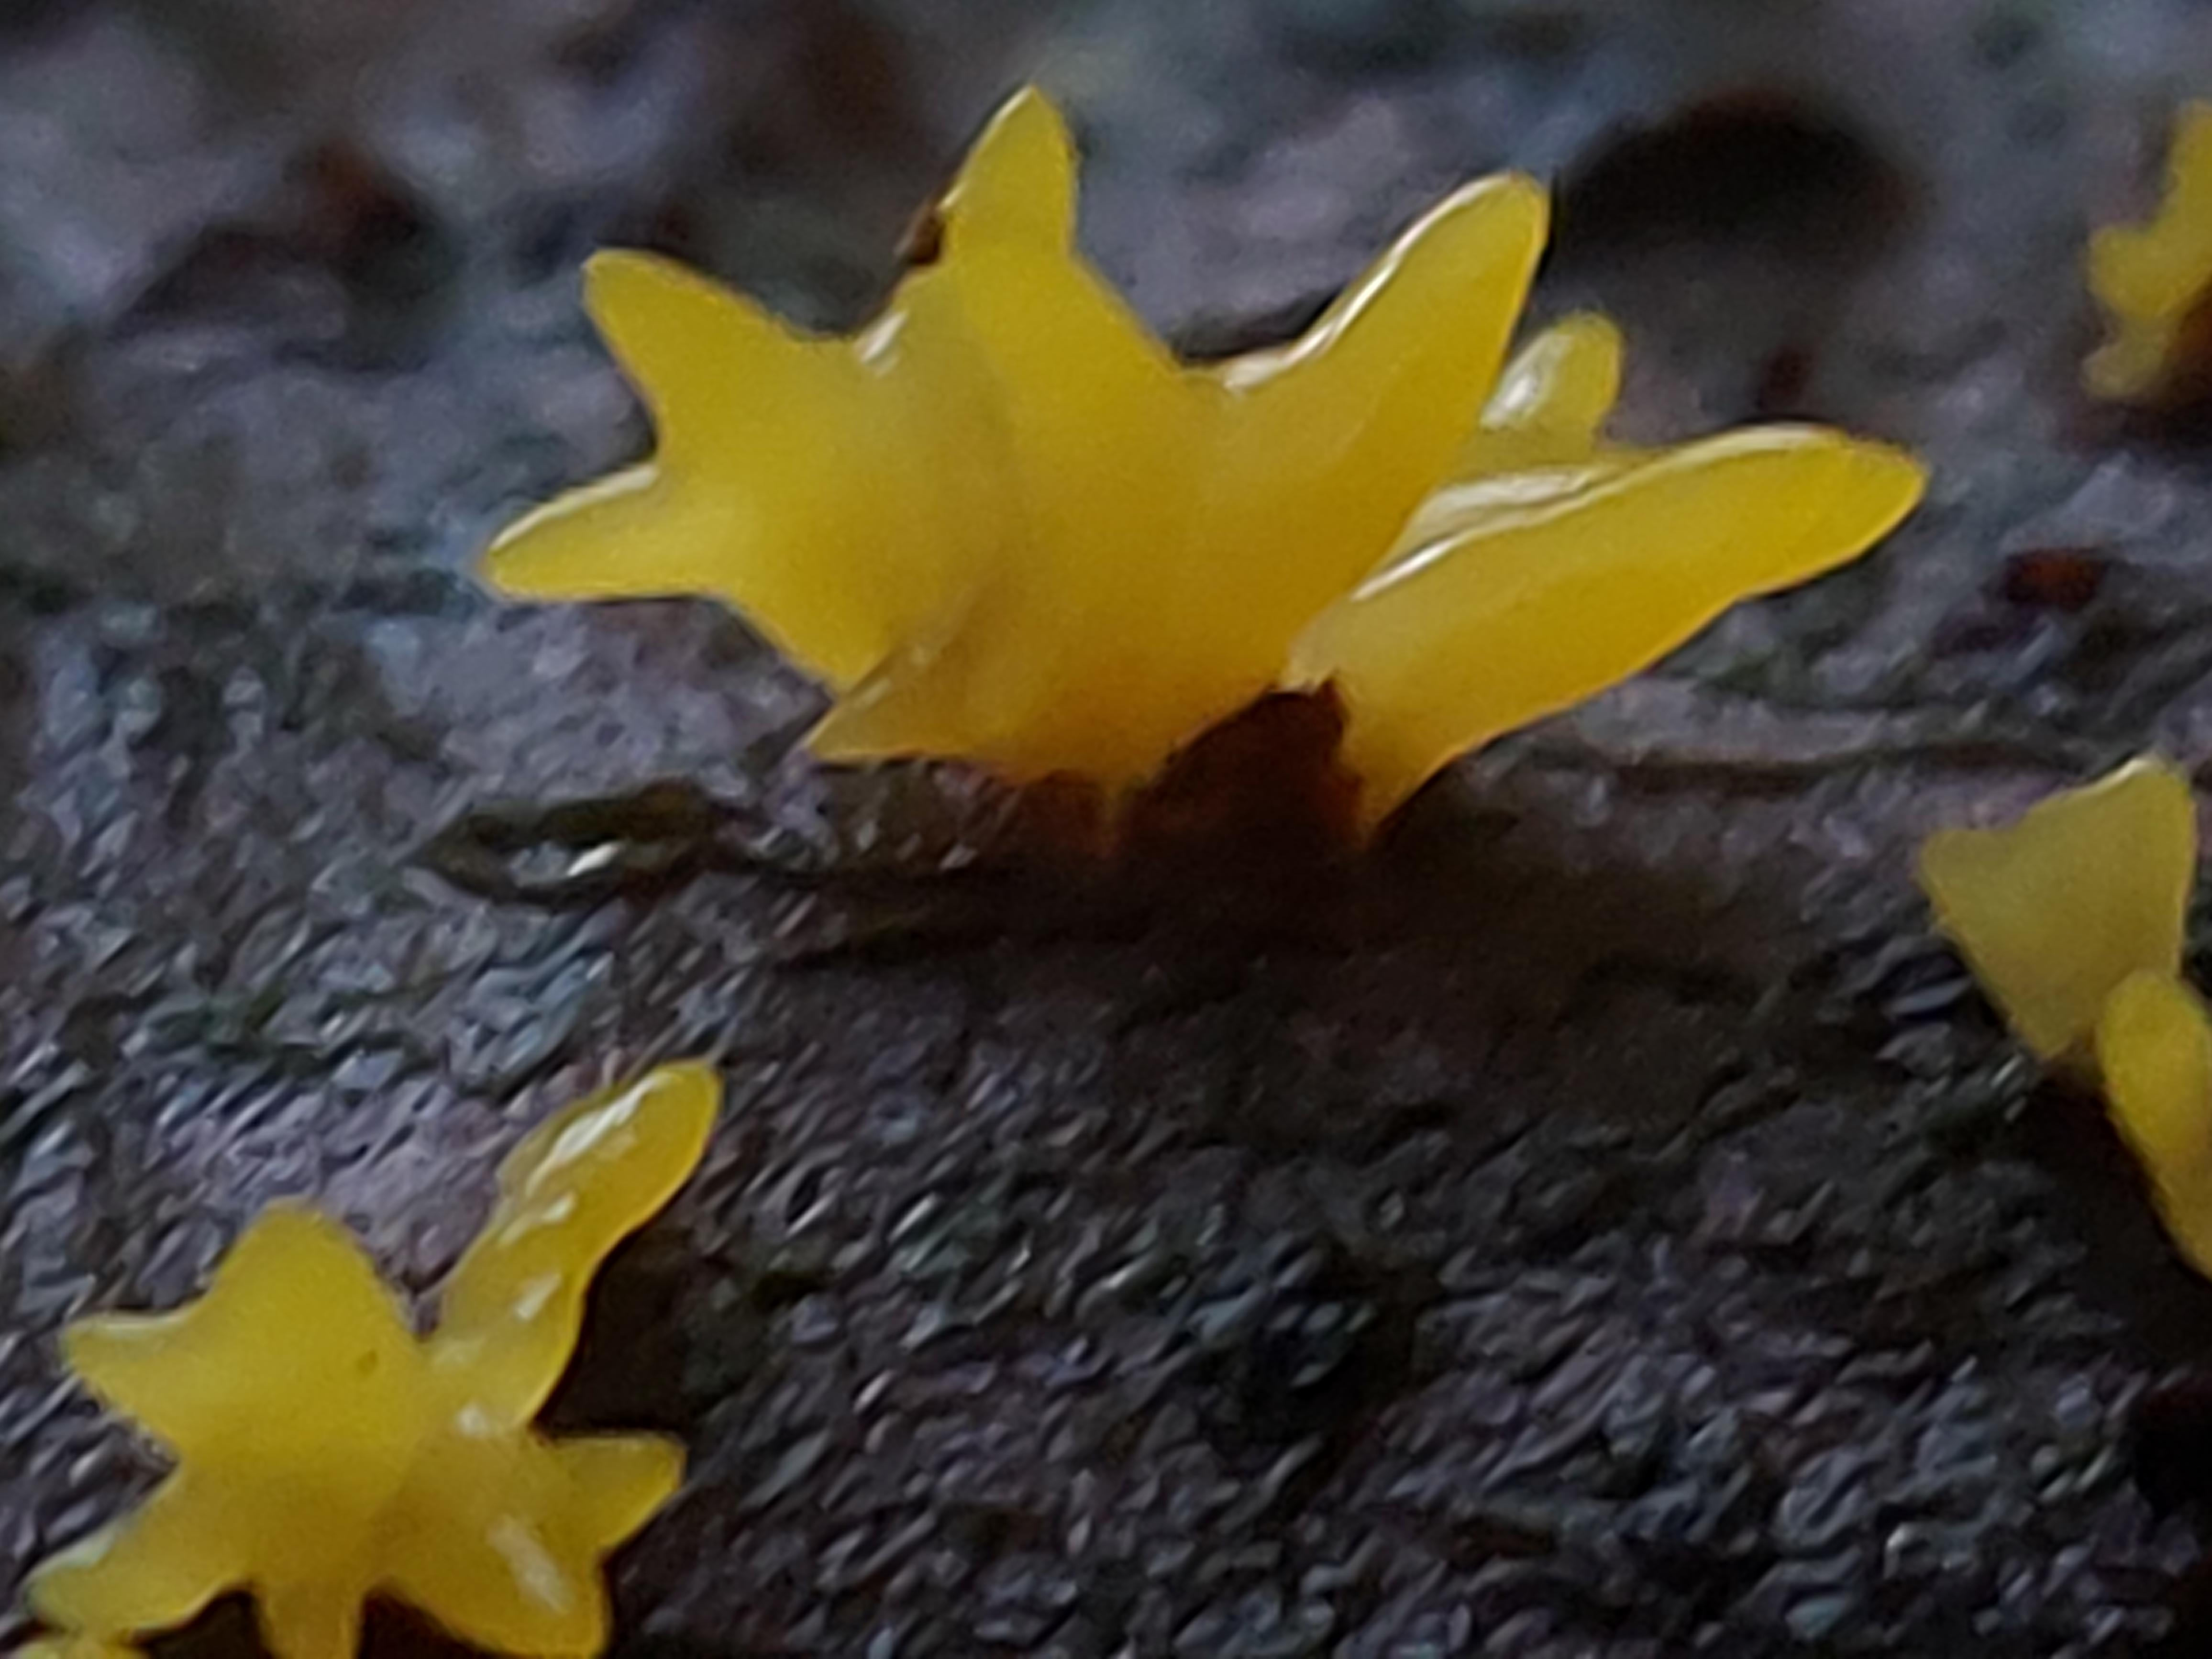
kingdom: Fungi
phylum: Basidiomycota
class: Dacrymycetes
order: Dacrymycetales
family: Dacrymycetaceae
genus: Calocera
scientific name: Calocera cornea
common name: liden guldgaffel
